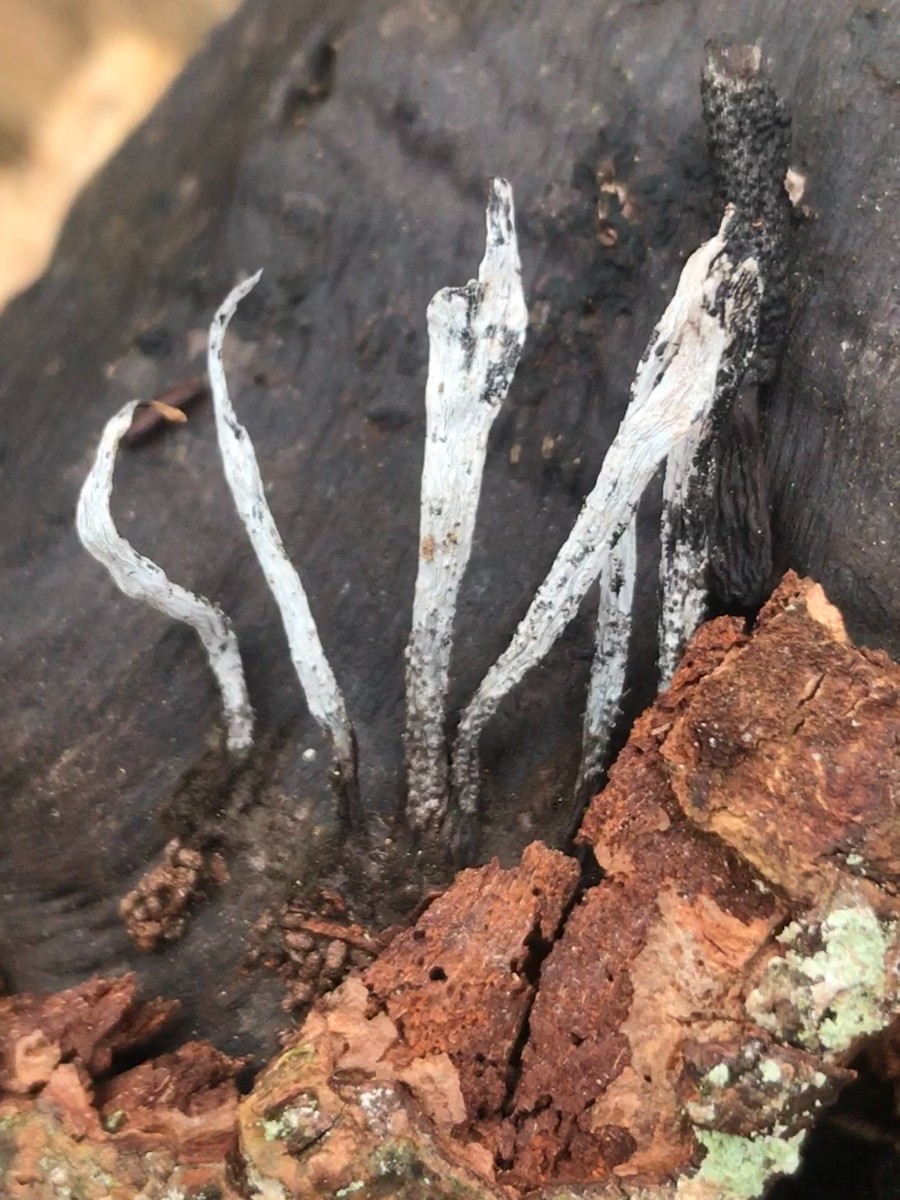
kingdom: Fungi
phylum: Ascomycota
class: Sordariomycetes
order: Xylariales
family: Xylariaceae
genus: Xylaria
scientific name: Xylaria hypoxylon
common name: grenet stødsvamp
